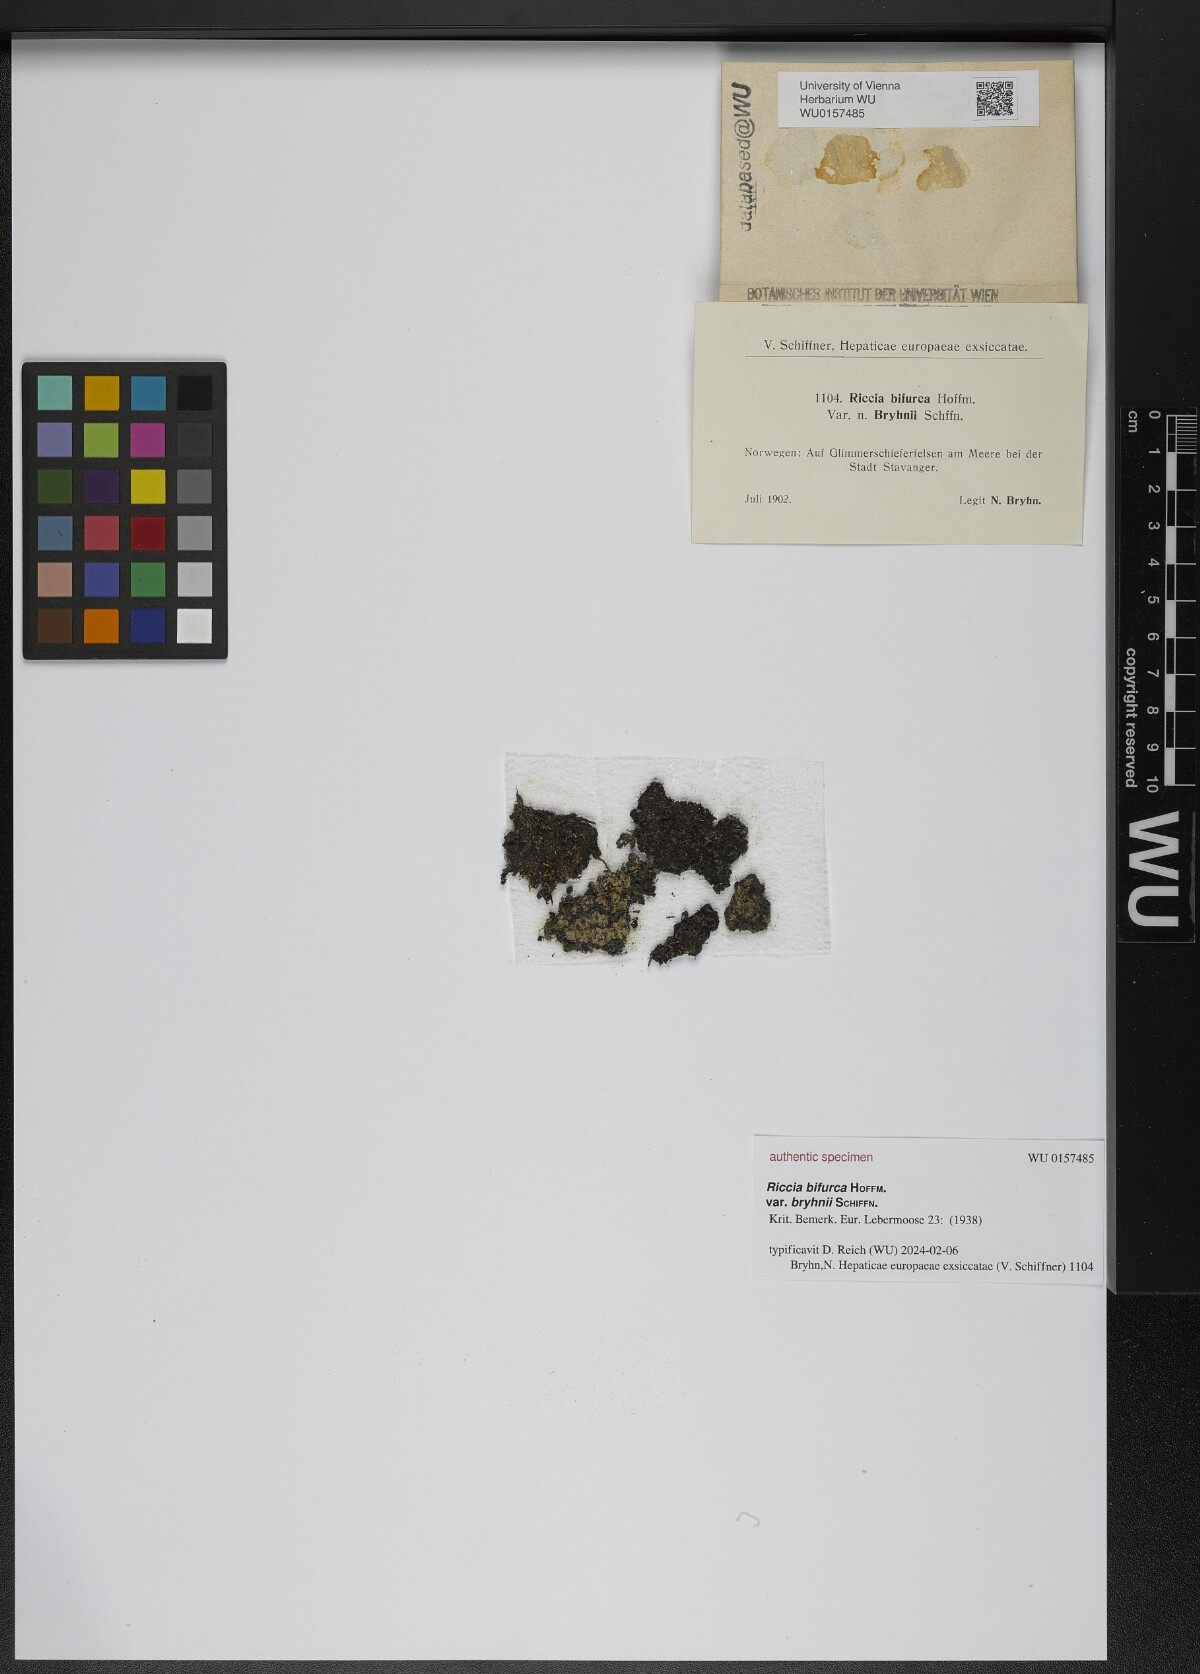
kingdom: Plantae
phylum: Marchantiophyta
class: Marchantiopsida
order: Marchantiales
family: Ricciaceae
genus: Riccia
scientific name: Riccia bifurca
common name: Lizard crystalwort
